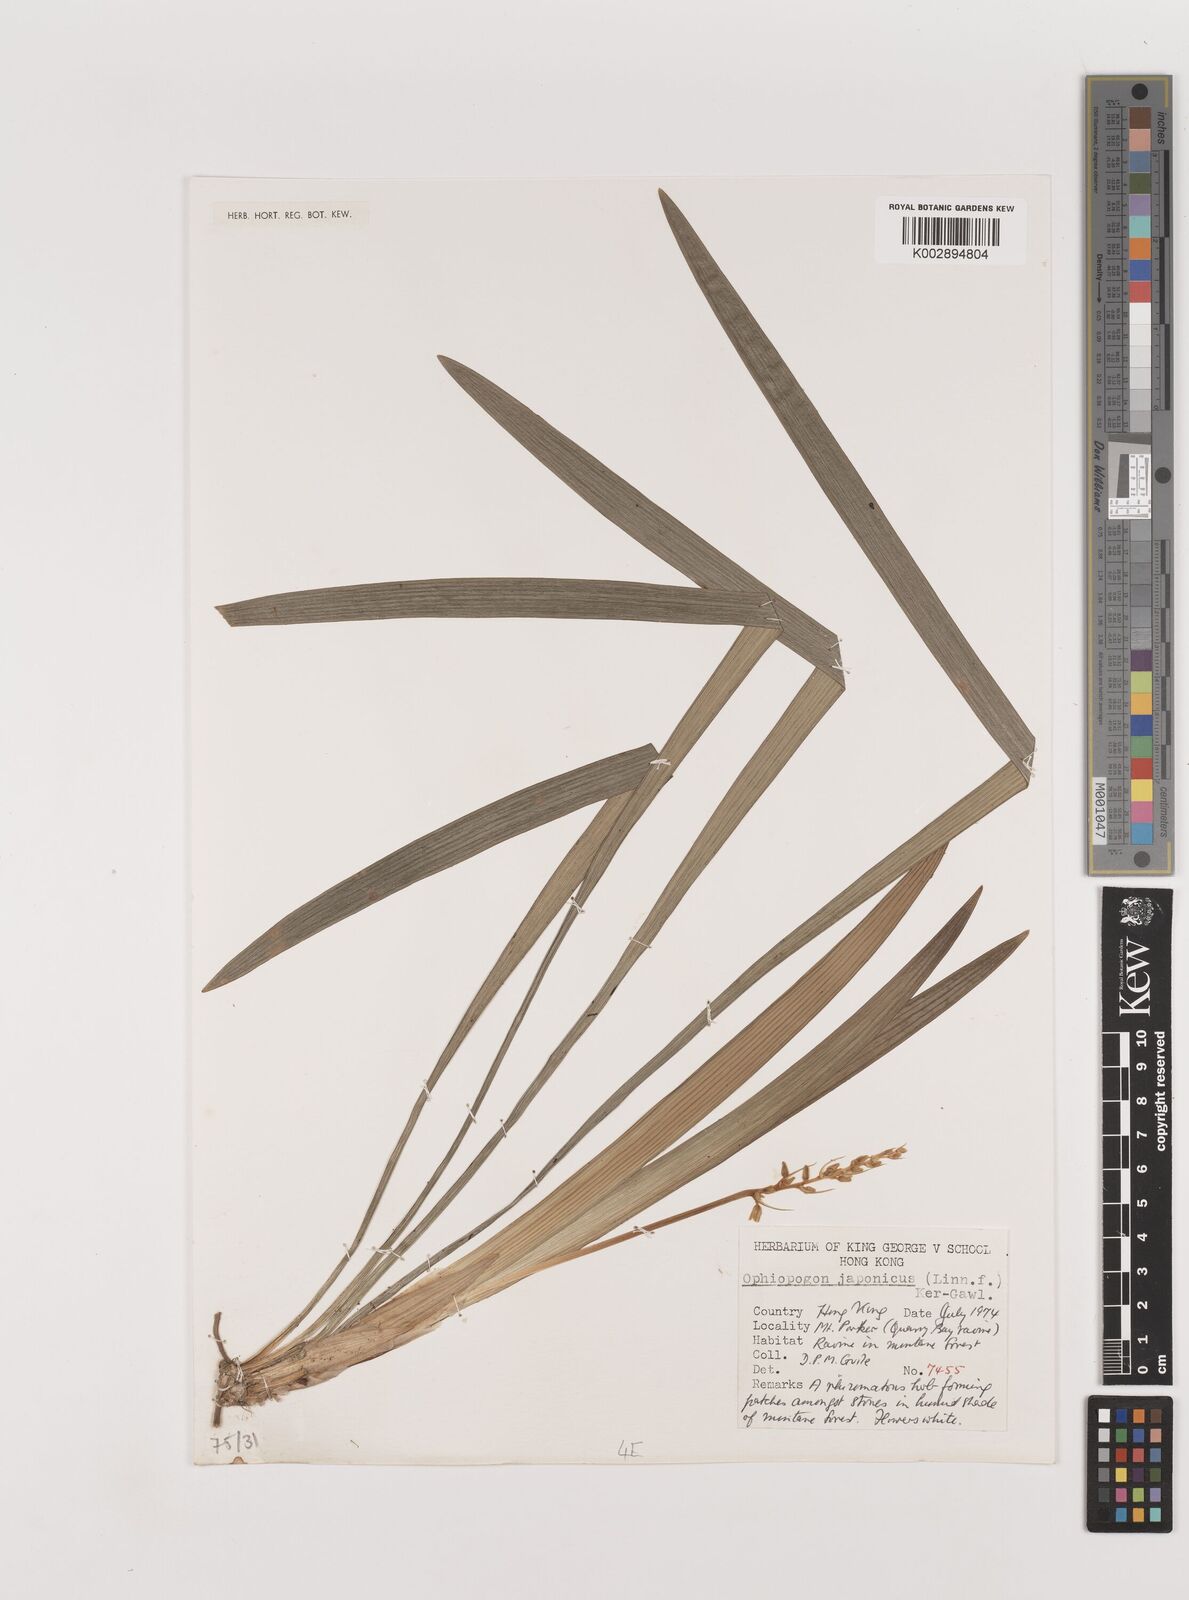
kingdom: Plantae
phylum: Tracheophyta
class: Liliopsida
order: Asparagales
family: Asparagaceae
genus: Ophiopogon
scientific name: Ophiopogon japonicus
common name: Dwarf lilyturf
